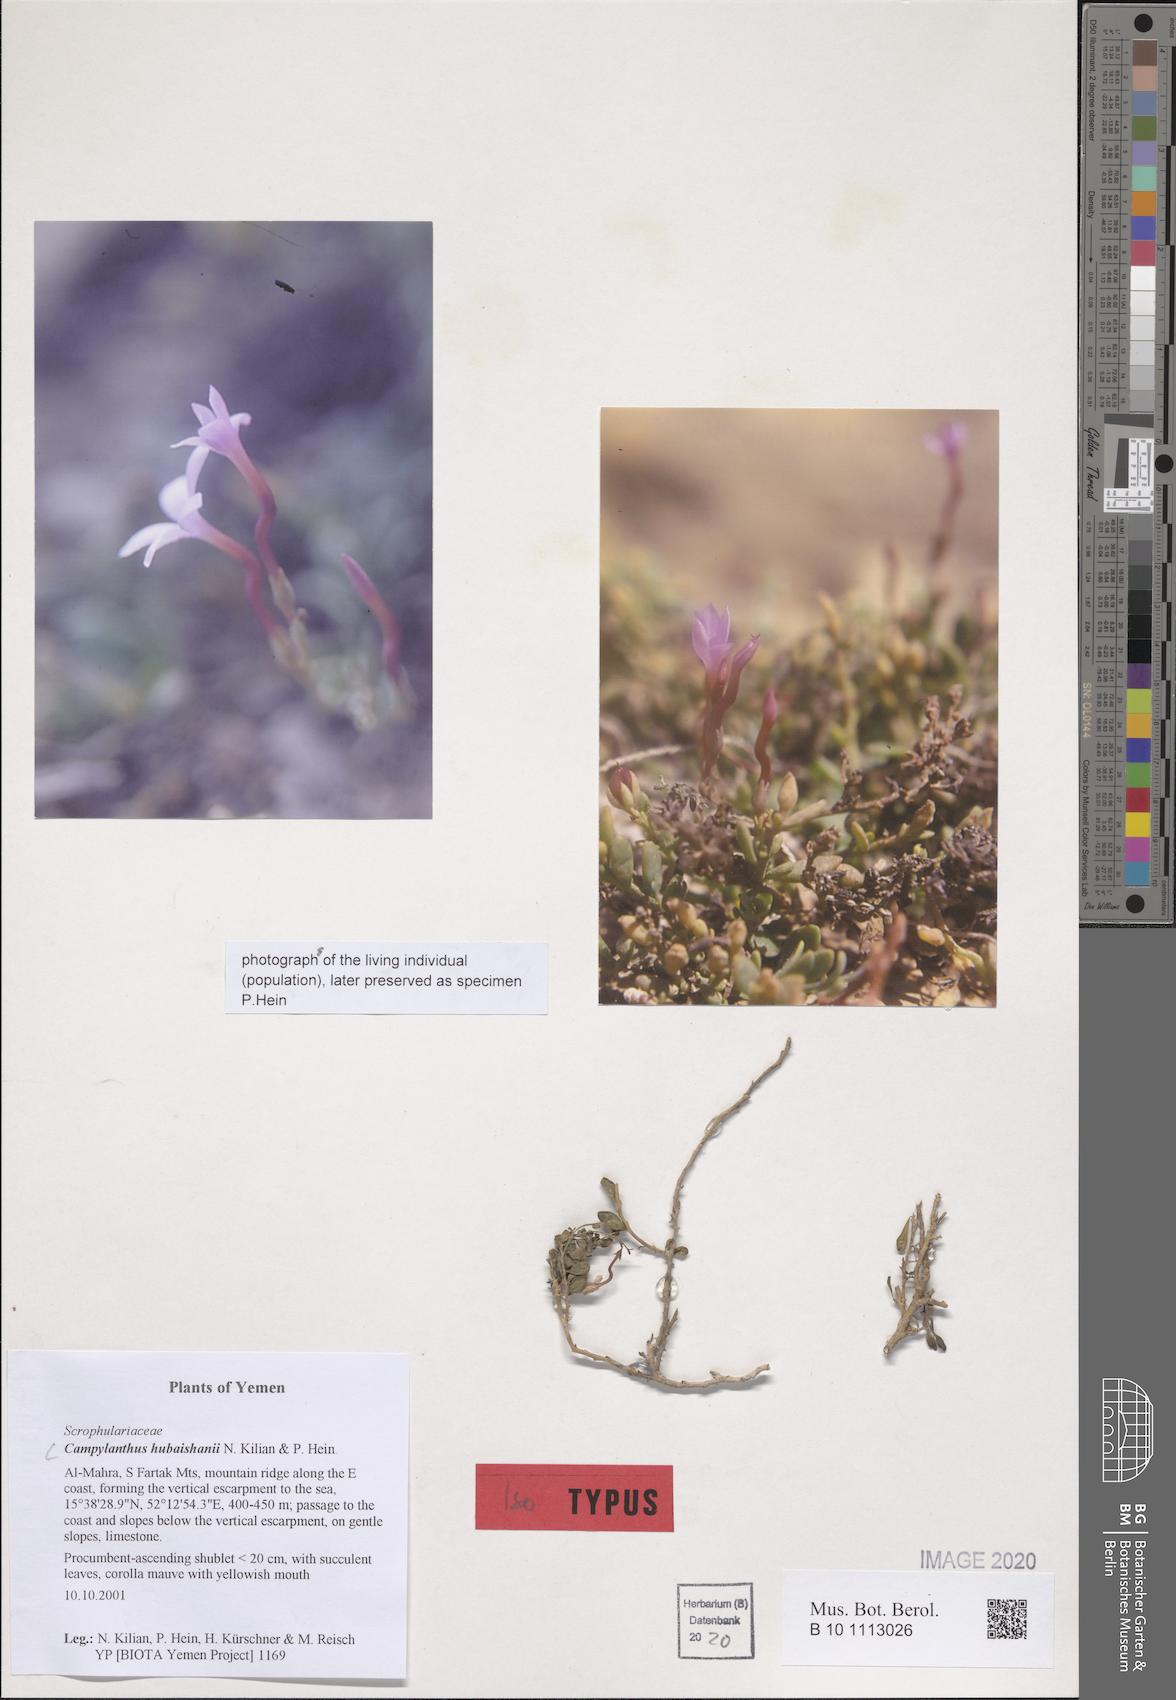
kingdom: Plantae
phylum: Tracheophyta
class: Magnoliopsida
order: Lamiales
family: Plantaginaceae
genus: Campylanthus
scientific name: Campylanthus hubaishanii
